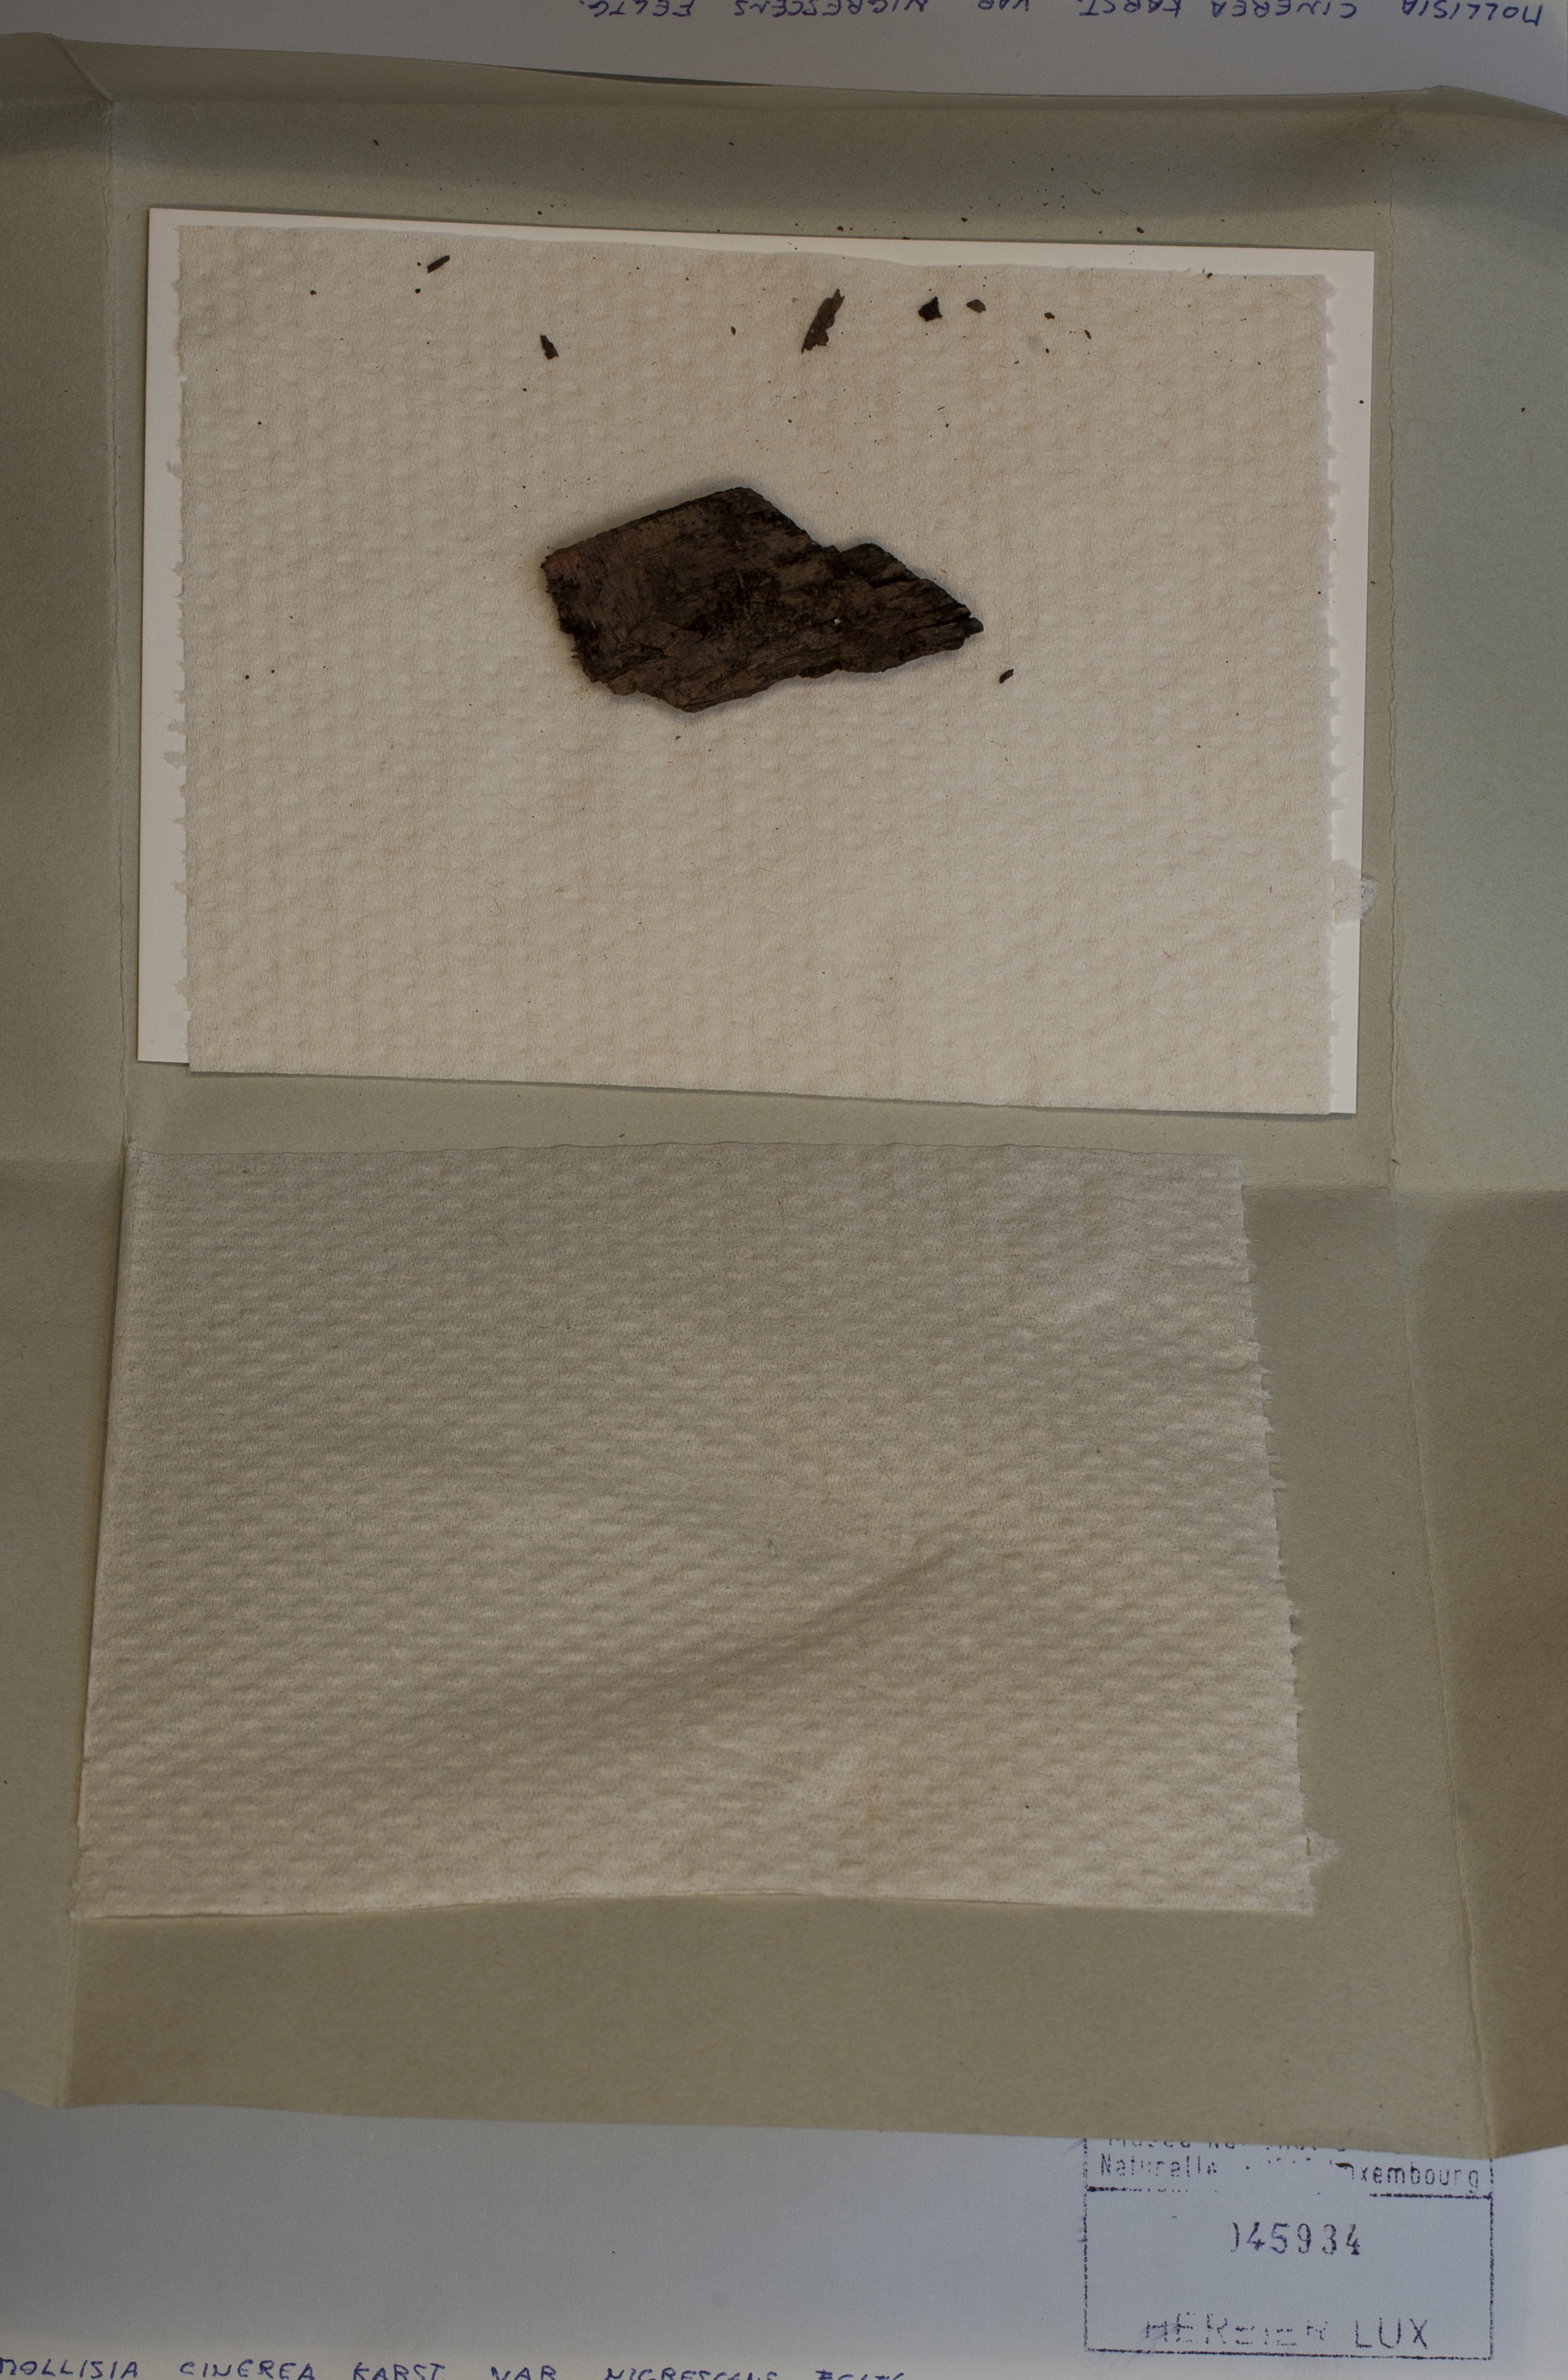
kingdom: Fungi
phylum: Ascomycota
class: Leotiomycetes
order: Helotiales
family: Mollisiaceae
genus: Mollisia
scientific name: Mollisia nigrescens
